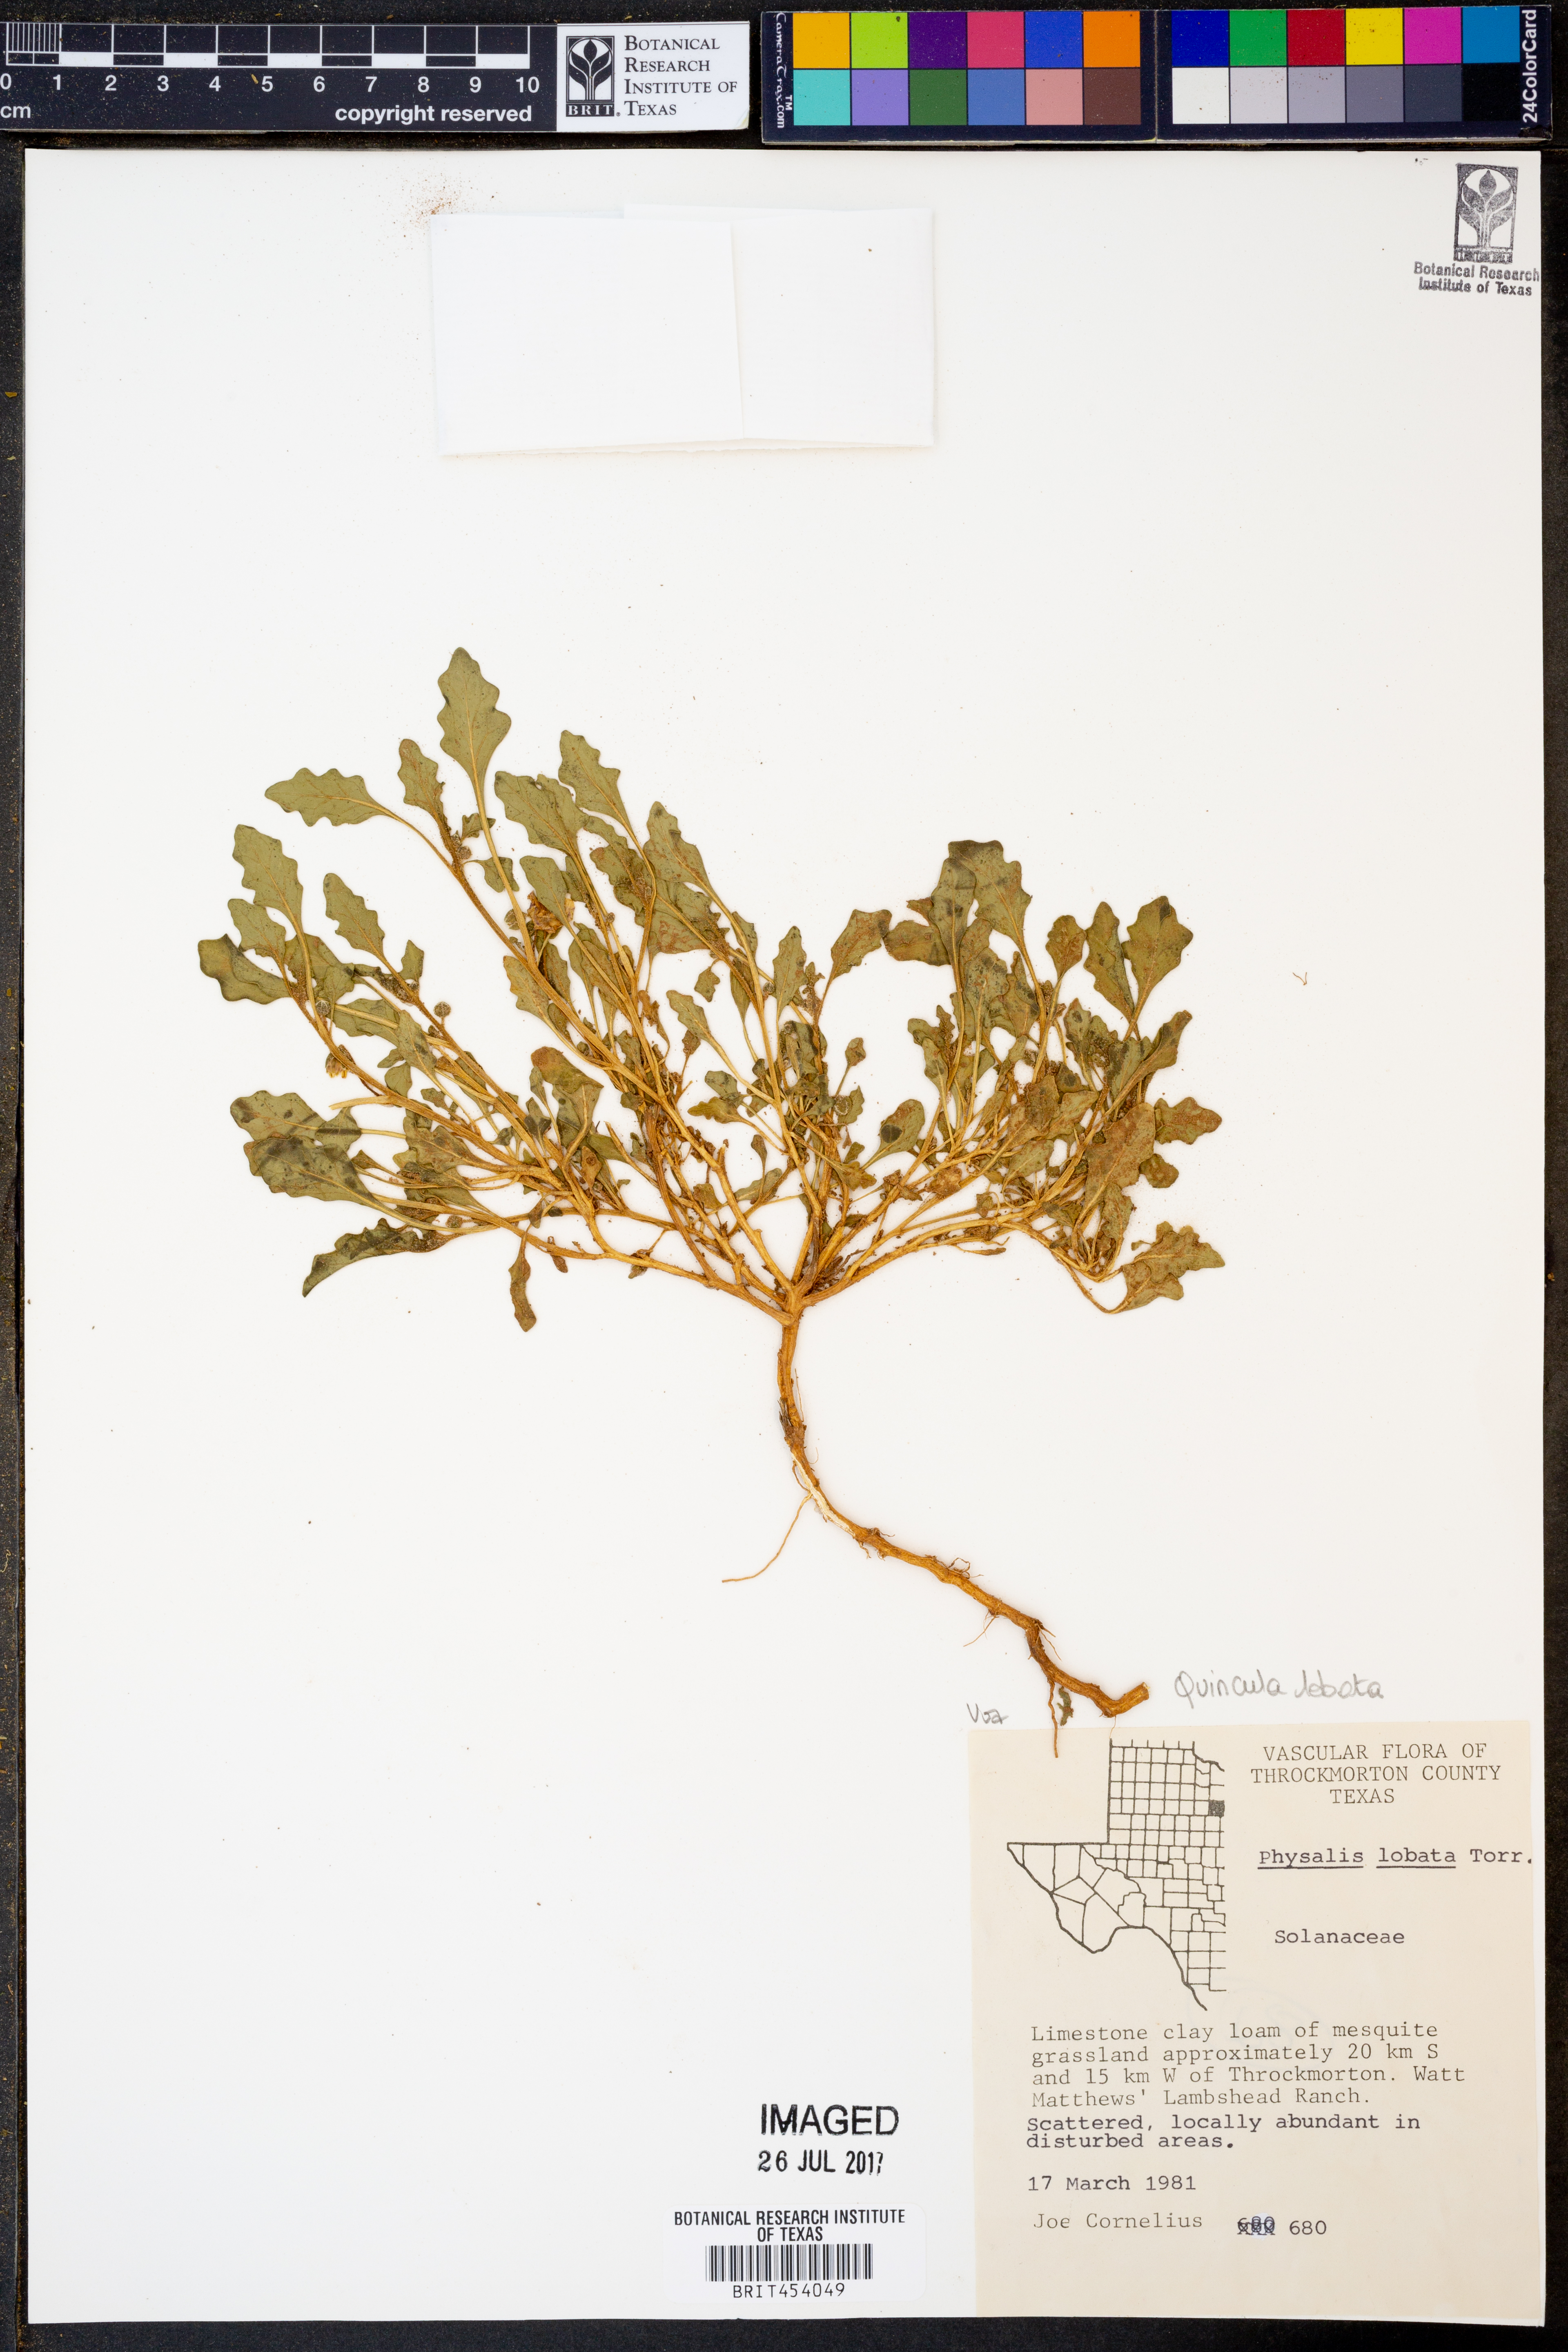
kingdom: Plantae
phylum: Tracheophyta
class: Magnoliopsida
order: Solanales
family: Solanaceae
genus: Quincula
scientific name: Quincula lobata
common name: Purple-ground-cherry
